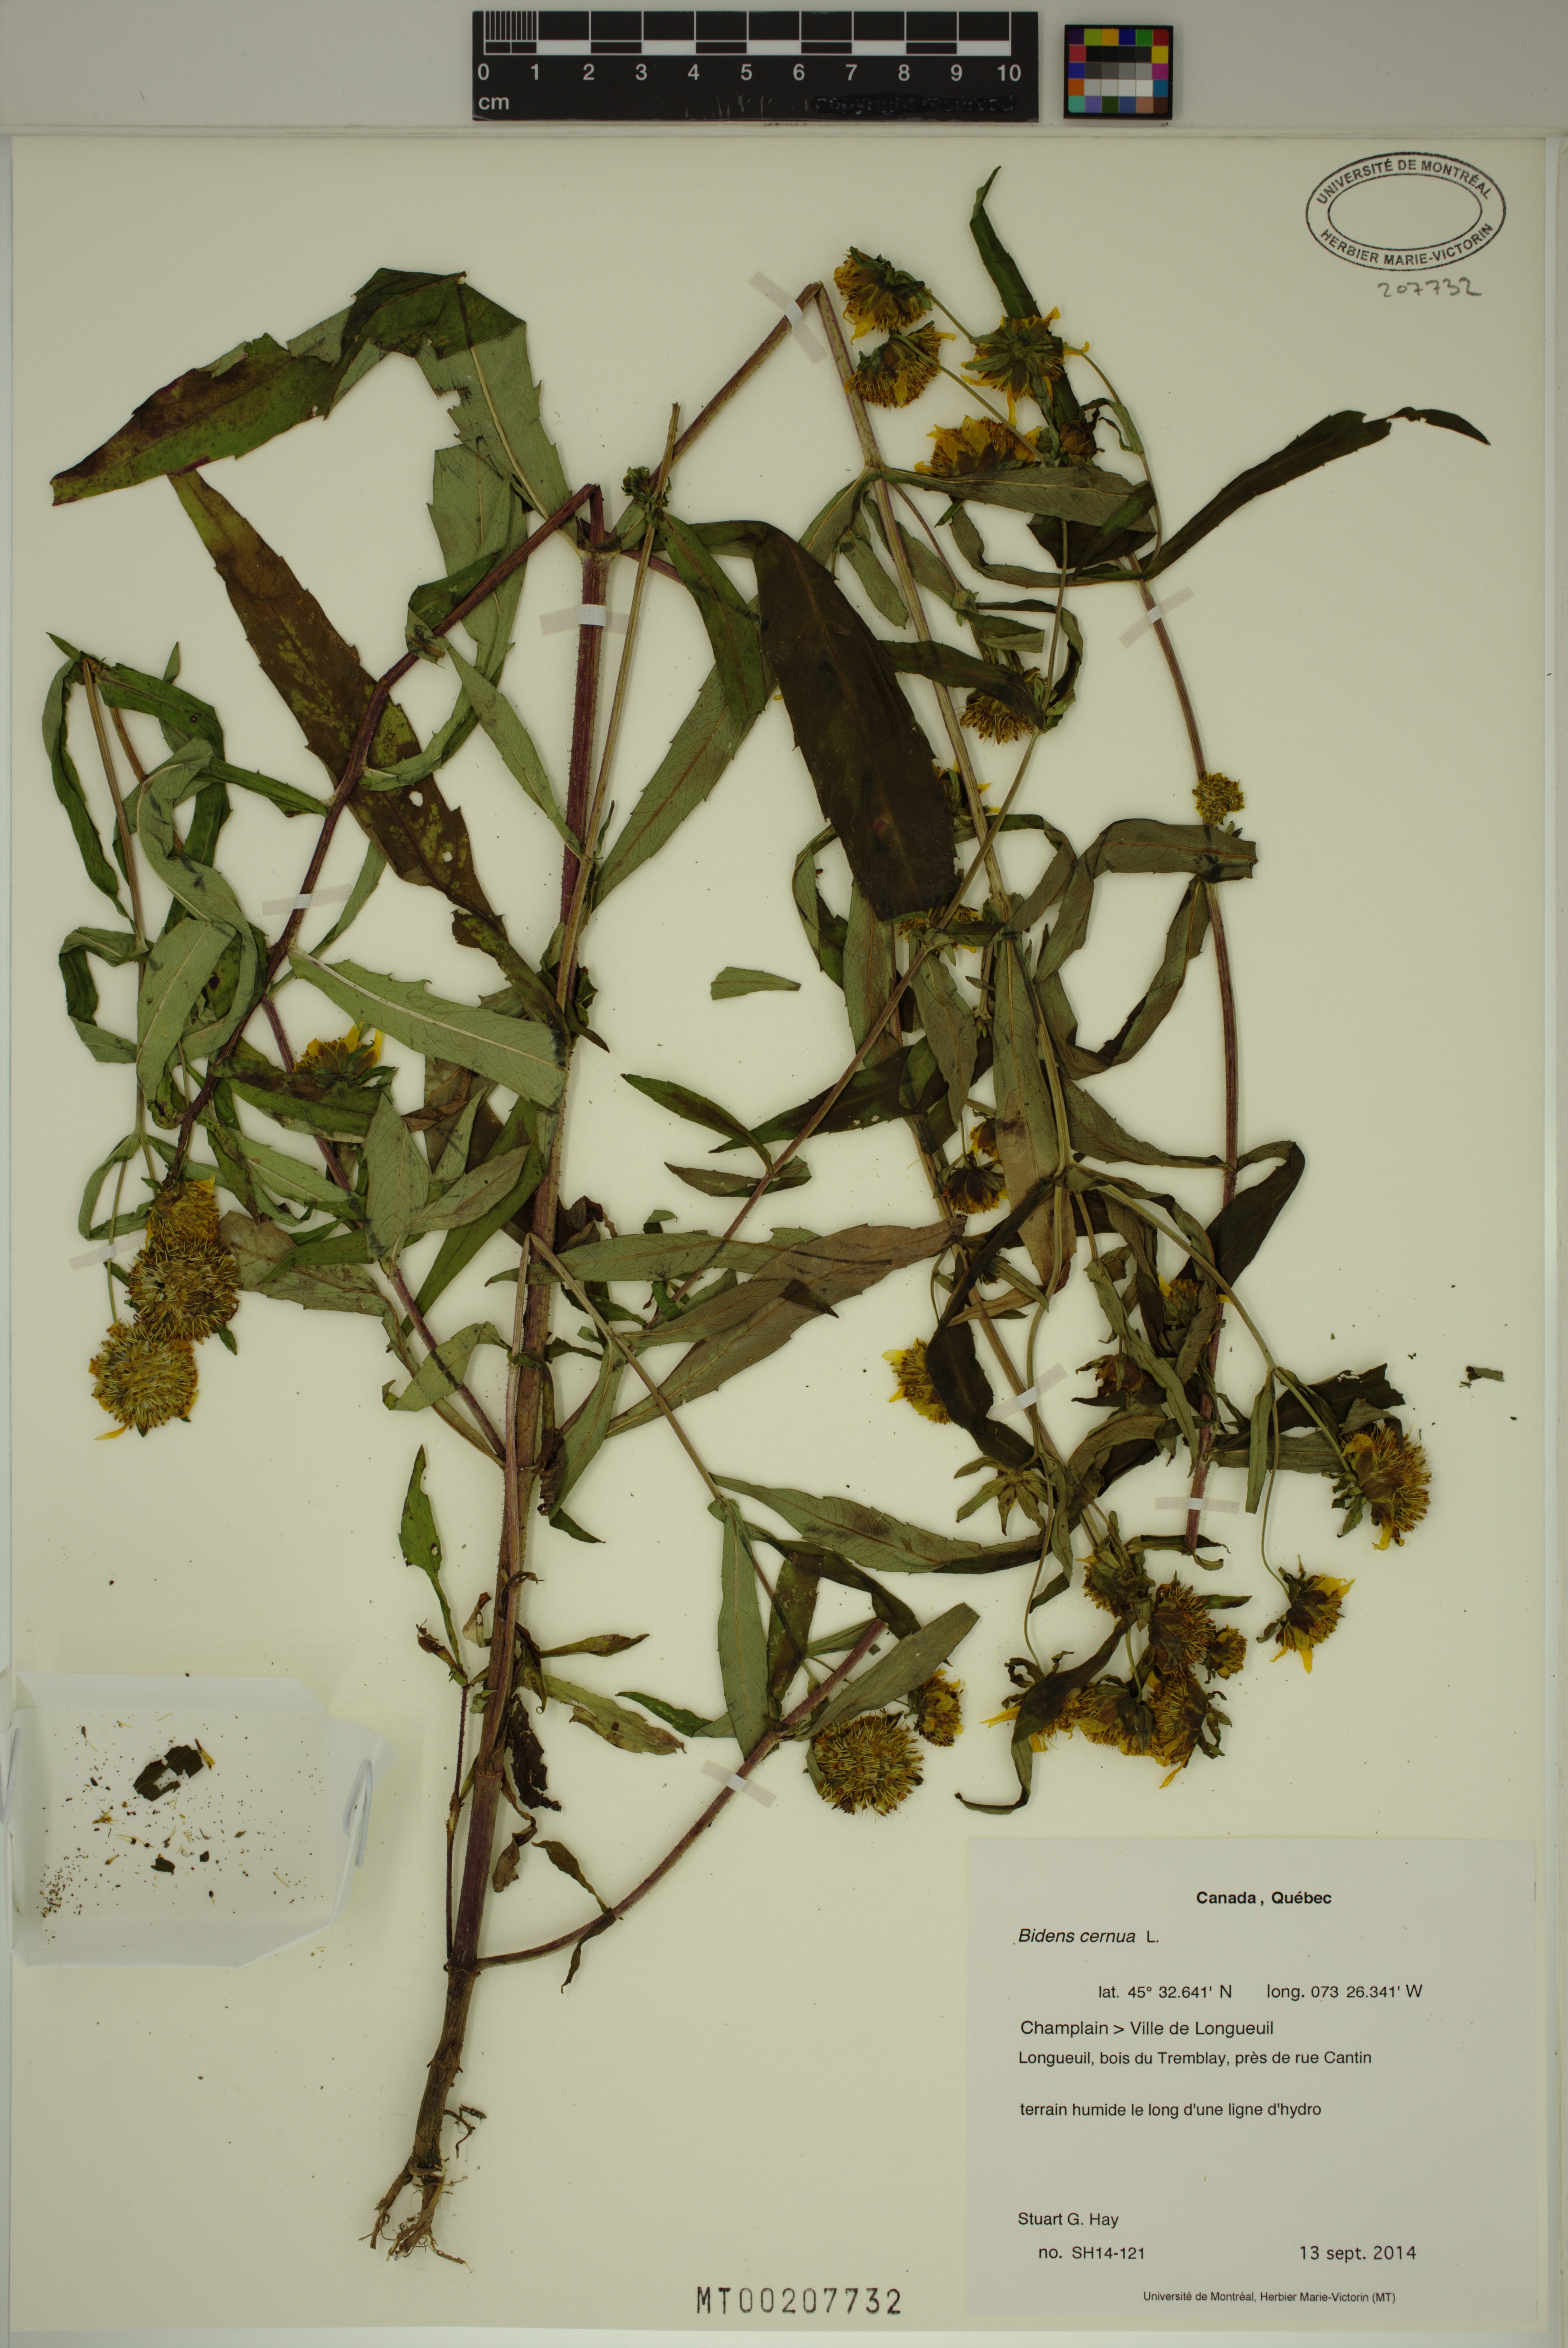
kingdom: Plantae
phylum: Tracheophyta
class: Magnoliopsida
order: Asterales
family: Asteraceae
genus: Bidens
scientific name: Bidens cernua
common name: Nodding bur-marigold
